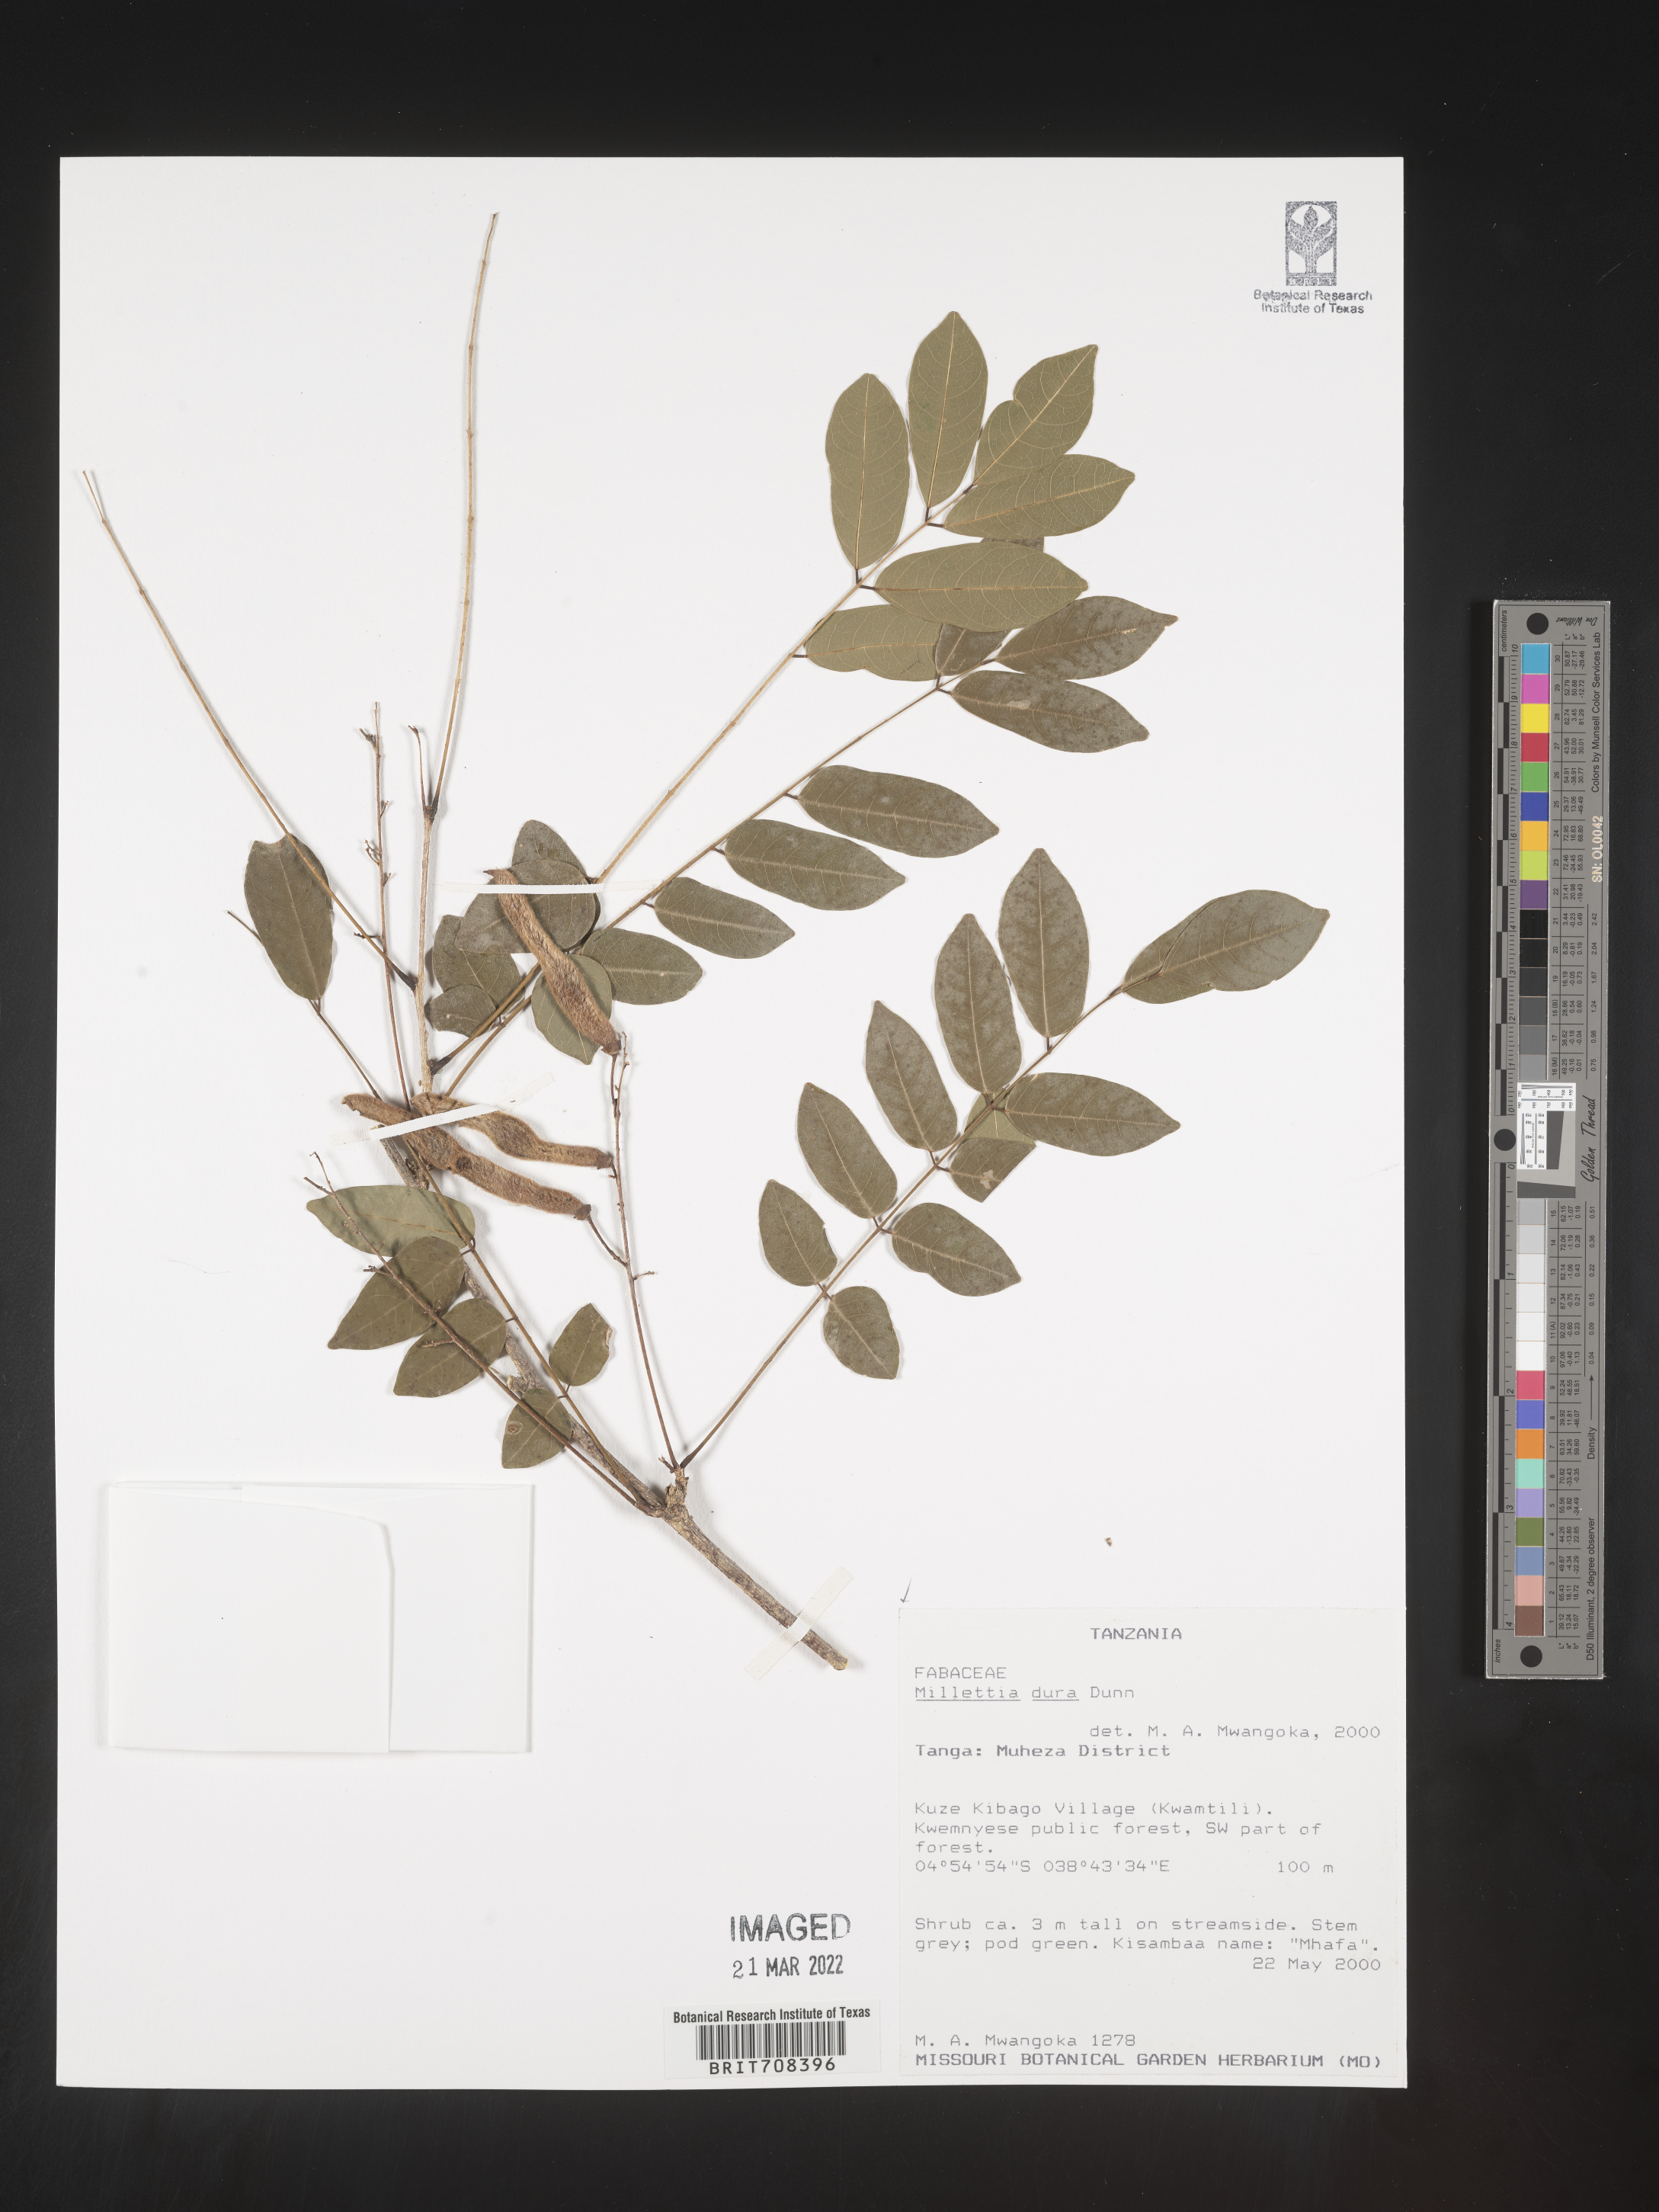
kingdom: Plantae
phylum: Tracheophyta
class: Magnoliopsida
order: Fabales
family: Fabaceae
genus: Millettia
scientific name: Millettia
